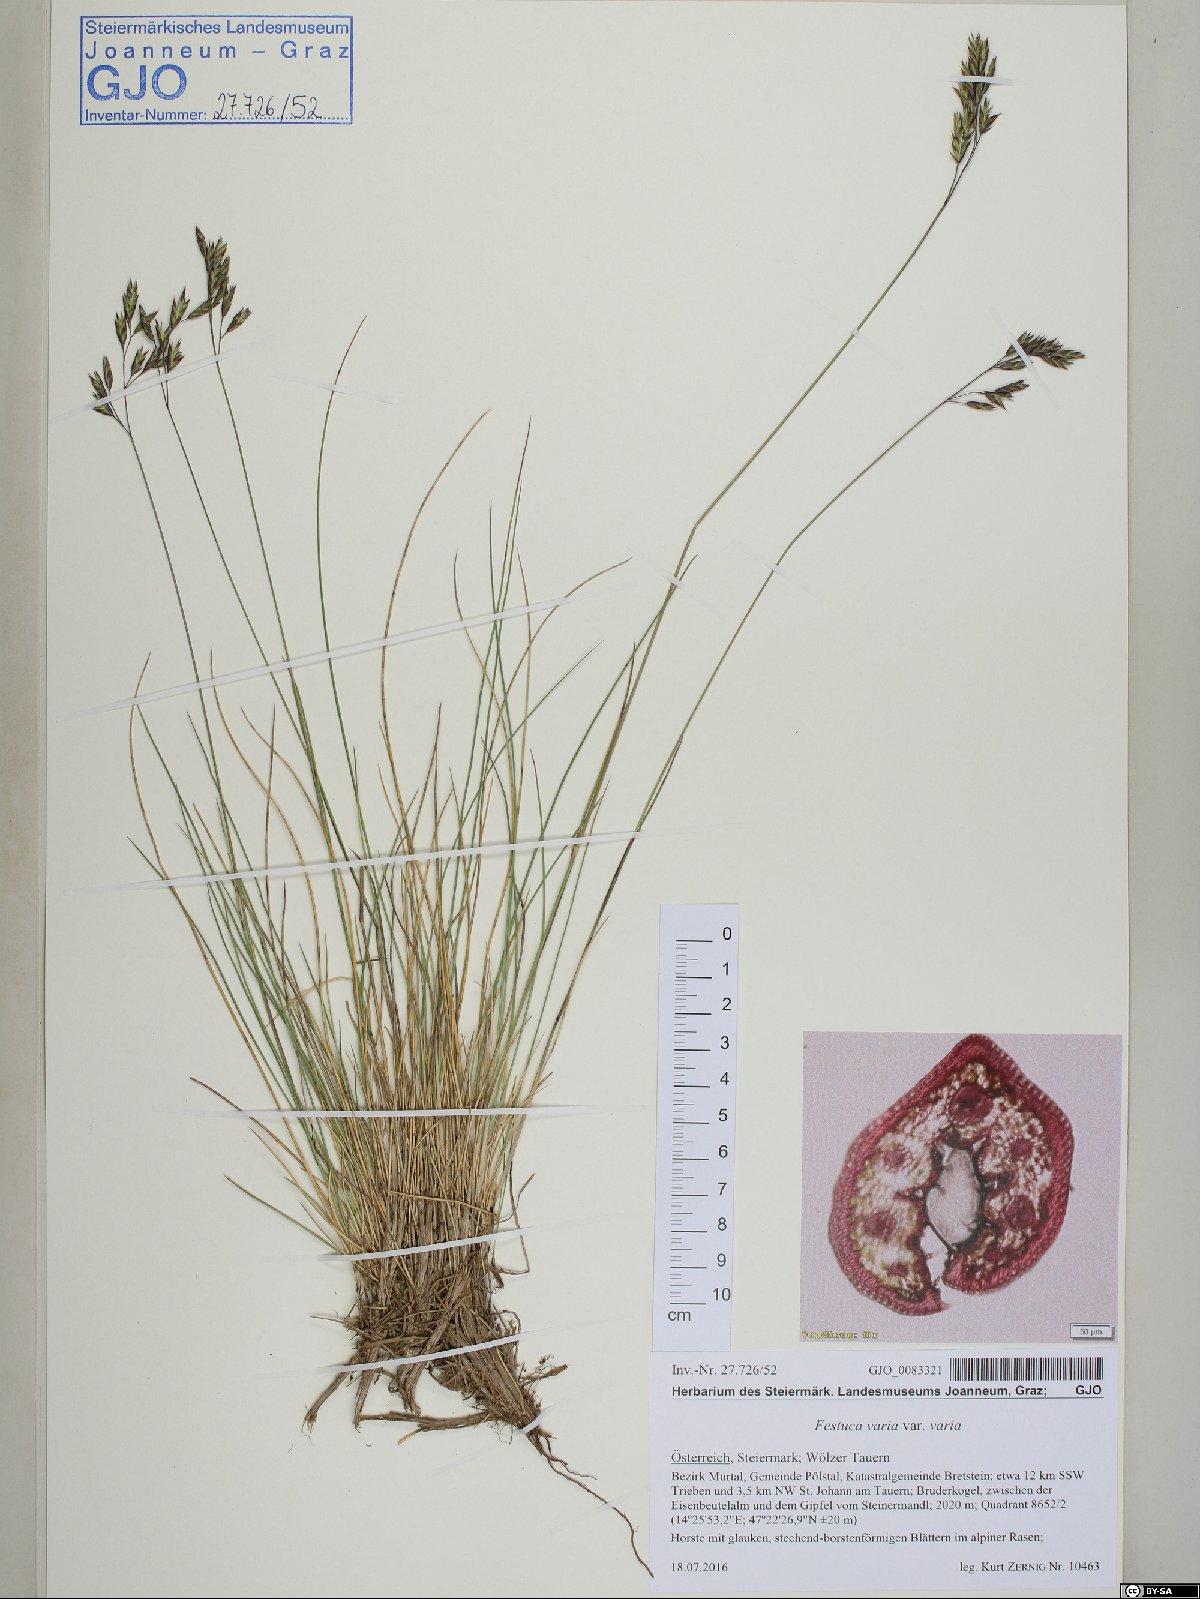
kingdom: Plantae
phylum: Tracheophyta
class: Liliopsida
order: Poales
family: Poaceae
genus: Festuca
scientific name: Festuca varia
